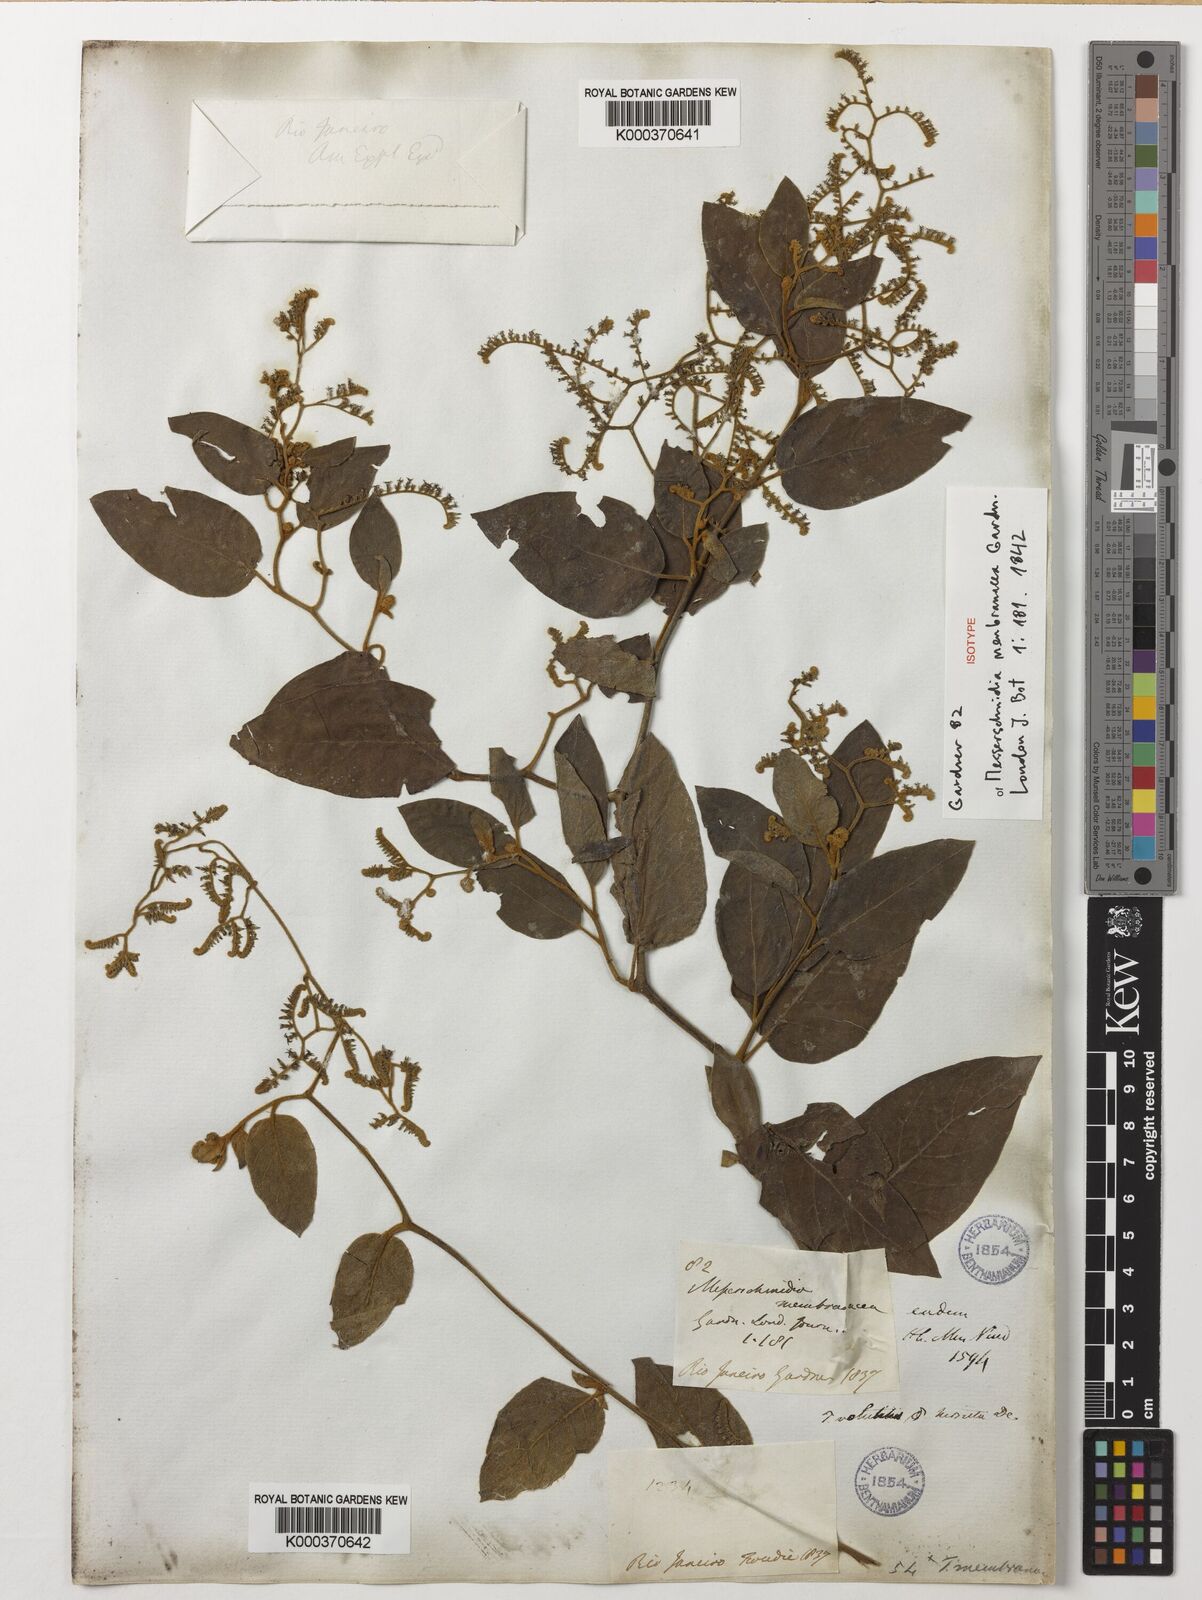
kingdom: Plantae
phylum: Tracheophyta
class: Magnoliopsida
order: Boraginales
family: Heliotropiaceae
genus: Myriopus
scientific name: Myriopus
